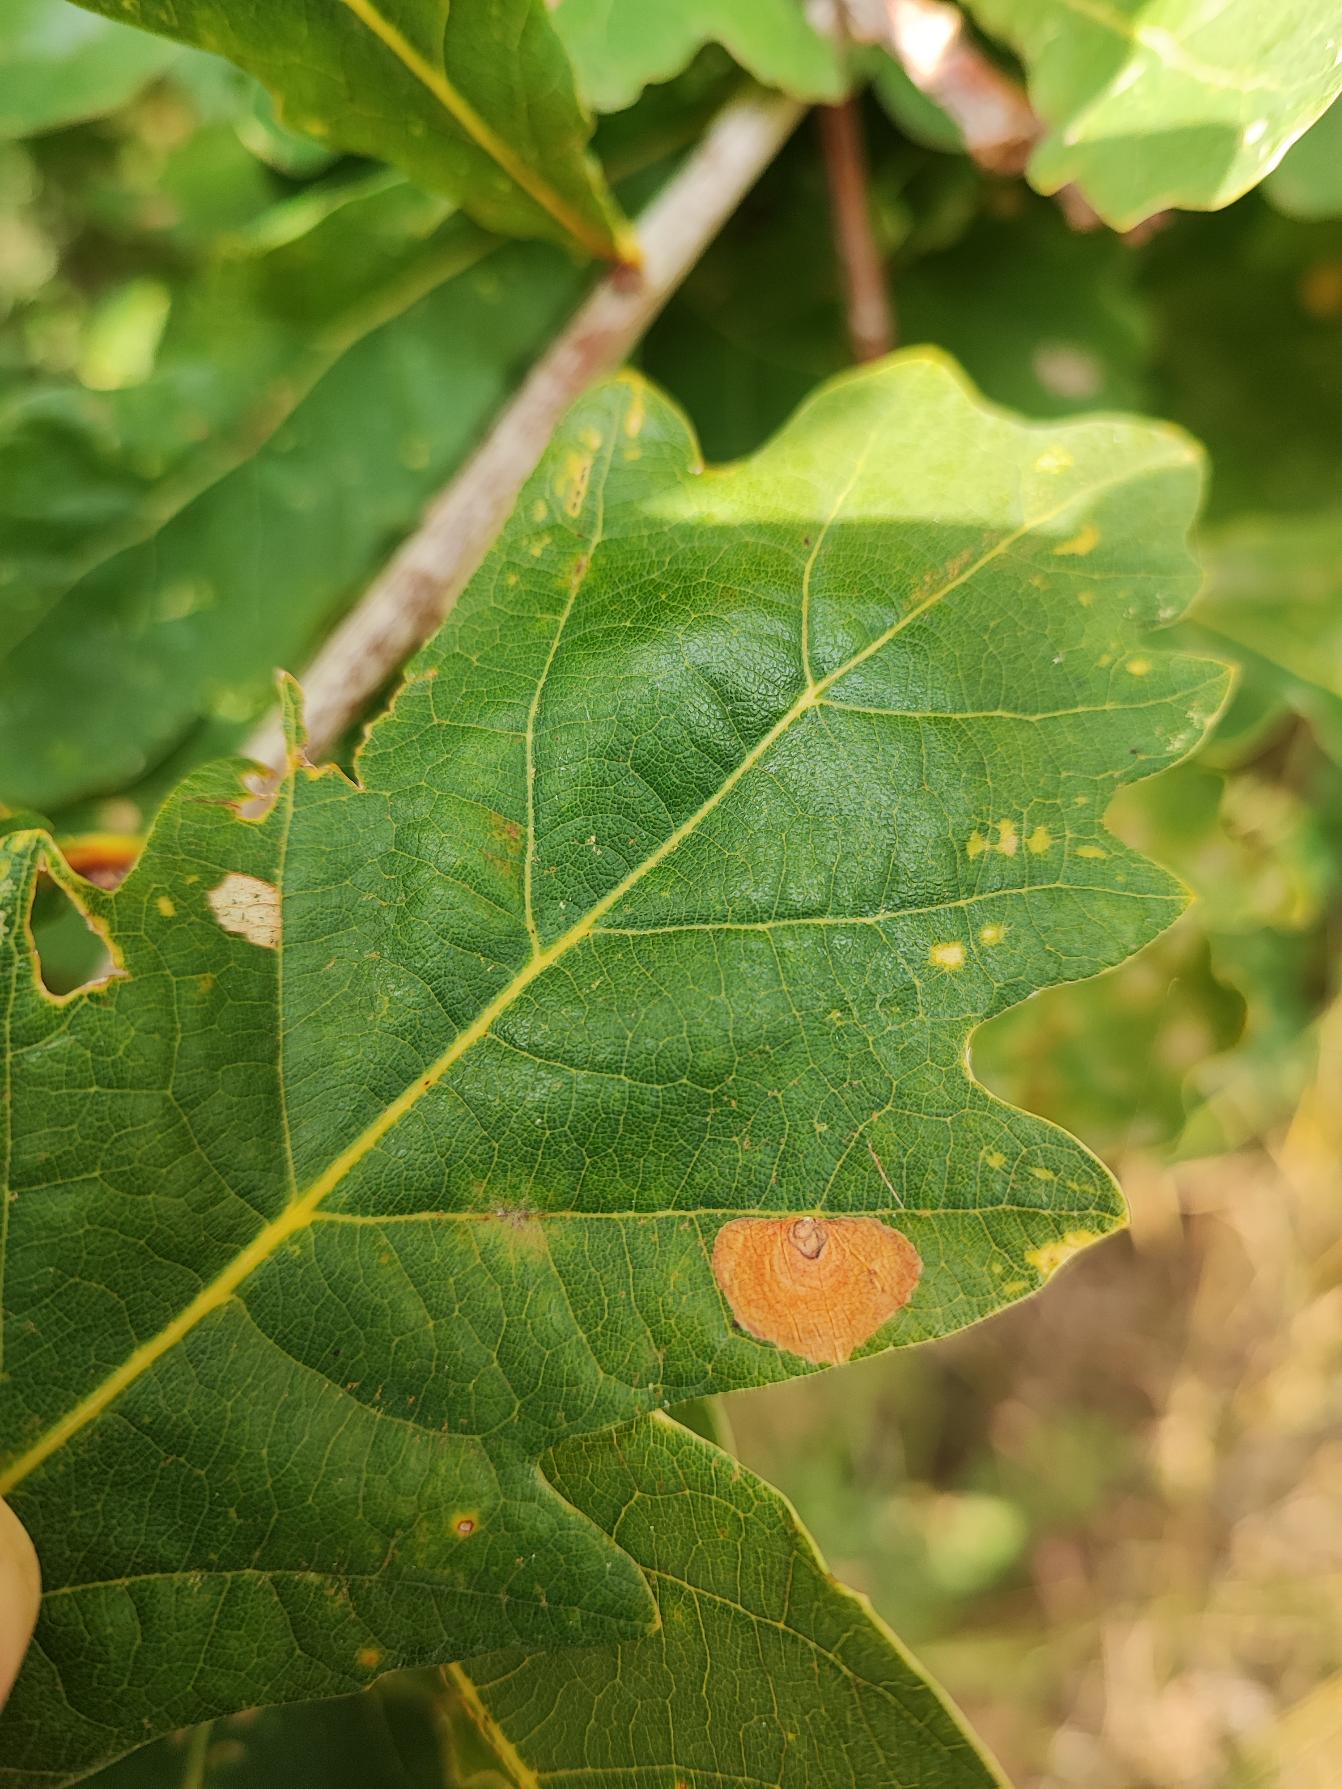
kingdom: Animalia
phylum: Arthropoda
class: Insecta
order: Lepidoptera
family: Tischeriidae
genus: Tischeria
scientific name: Tischeria dodonaea
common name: Egebladspandeduskmøl
